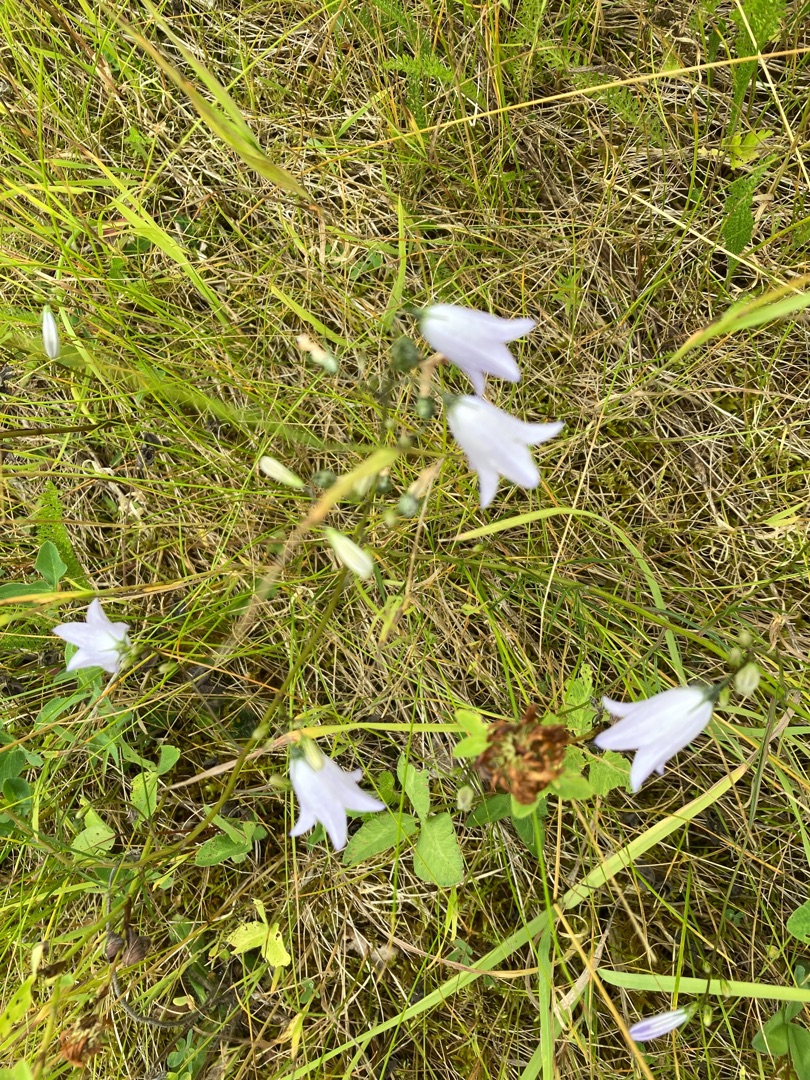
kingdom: Plantae
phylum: Tracheophyta
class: Magnoliopsida
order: Asterales
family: Campanulaceae
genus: Campanula
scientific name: Campanula rotundifolia
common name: Liden klokke
